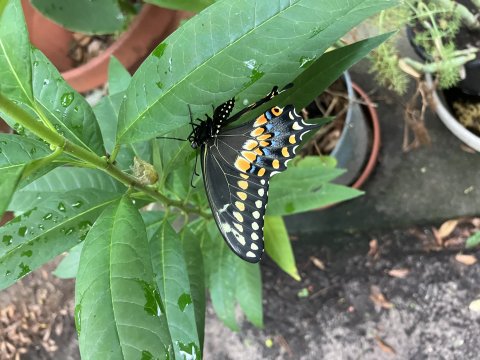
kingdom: Animalia
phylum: Arthropoda
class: Insecta
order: Lepidoptera
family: Papilionidae
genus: Papilio
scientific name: Papilio polyxenes
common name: Black Swallowtail
